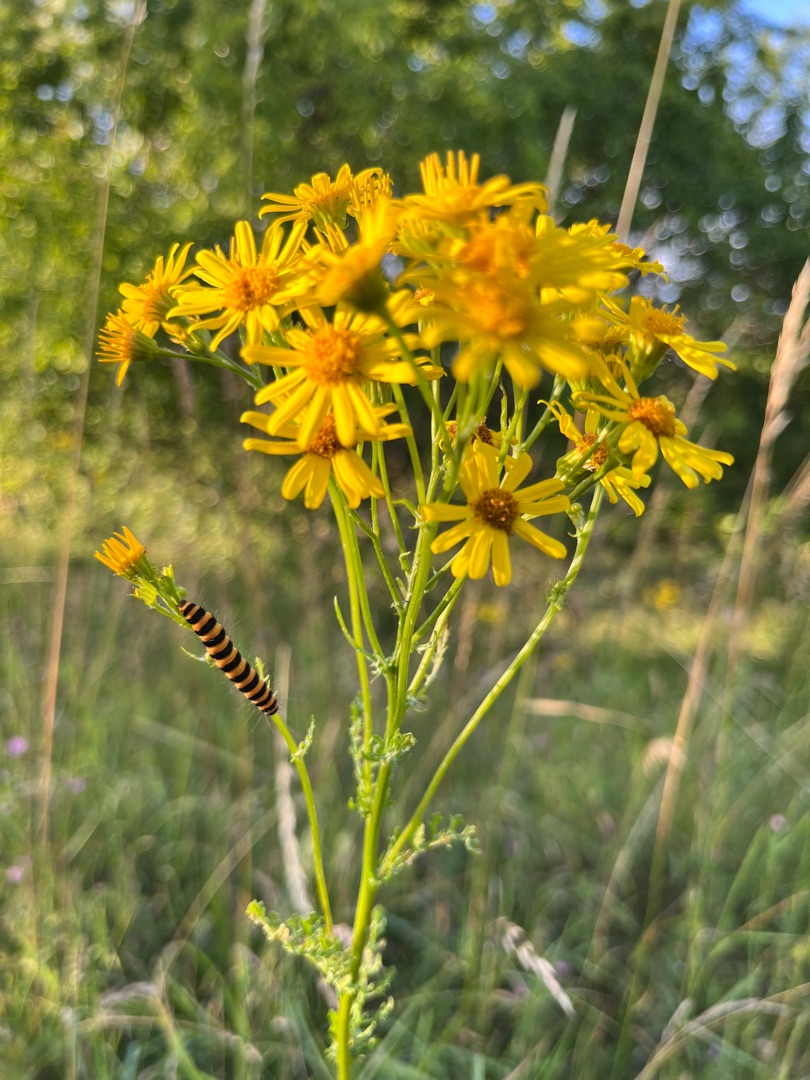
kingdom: Animalia
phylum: Arthropoda
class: Insecta
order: Lepidoptera
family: Erebidae
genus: Tyria
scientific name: Tyria jacobaeae
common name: Blodplet
